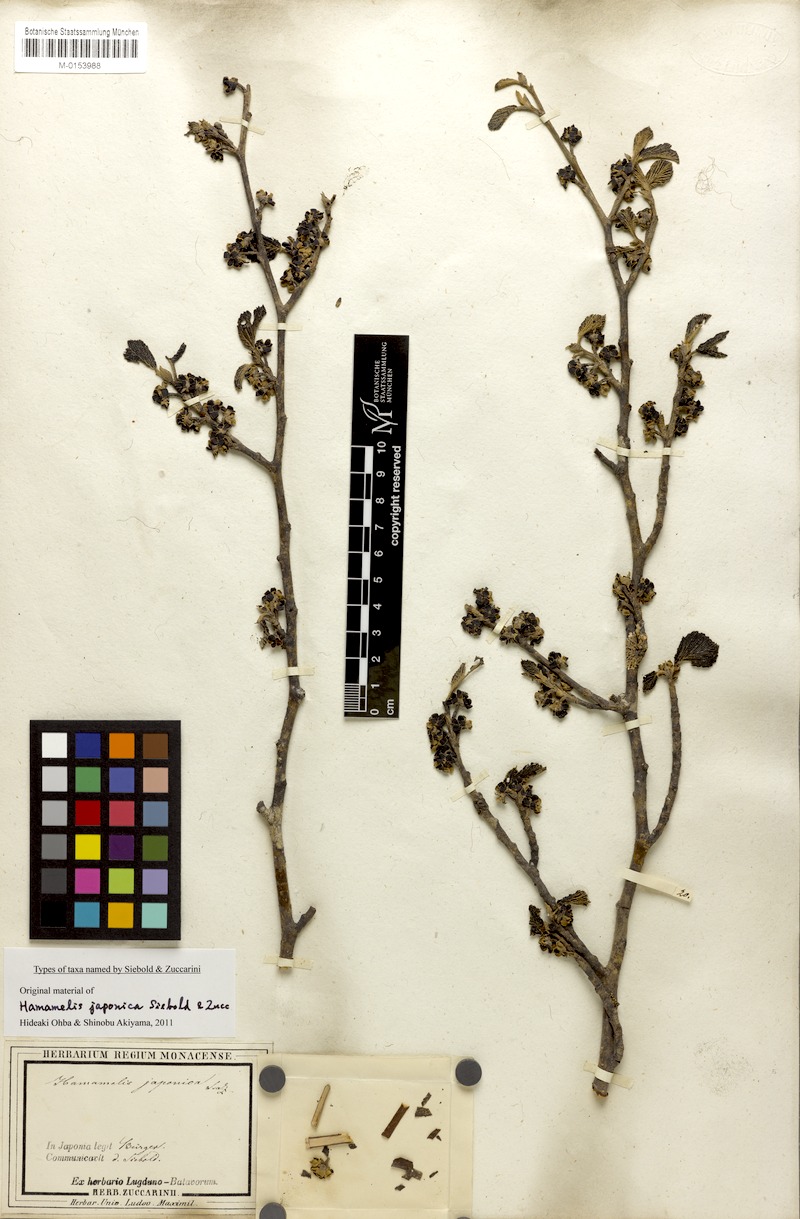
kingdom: Plantae
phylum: Tracheophyta
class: Magnoliopsida
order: Saxifragales
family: Hamamelidaceae
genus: Hamamelis
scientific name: Hamamelis japonica
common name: Japanese witch-hazel
